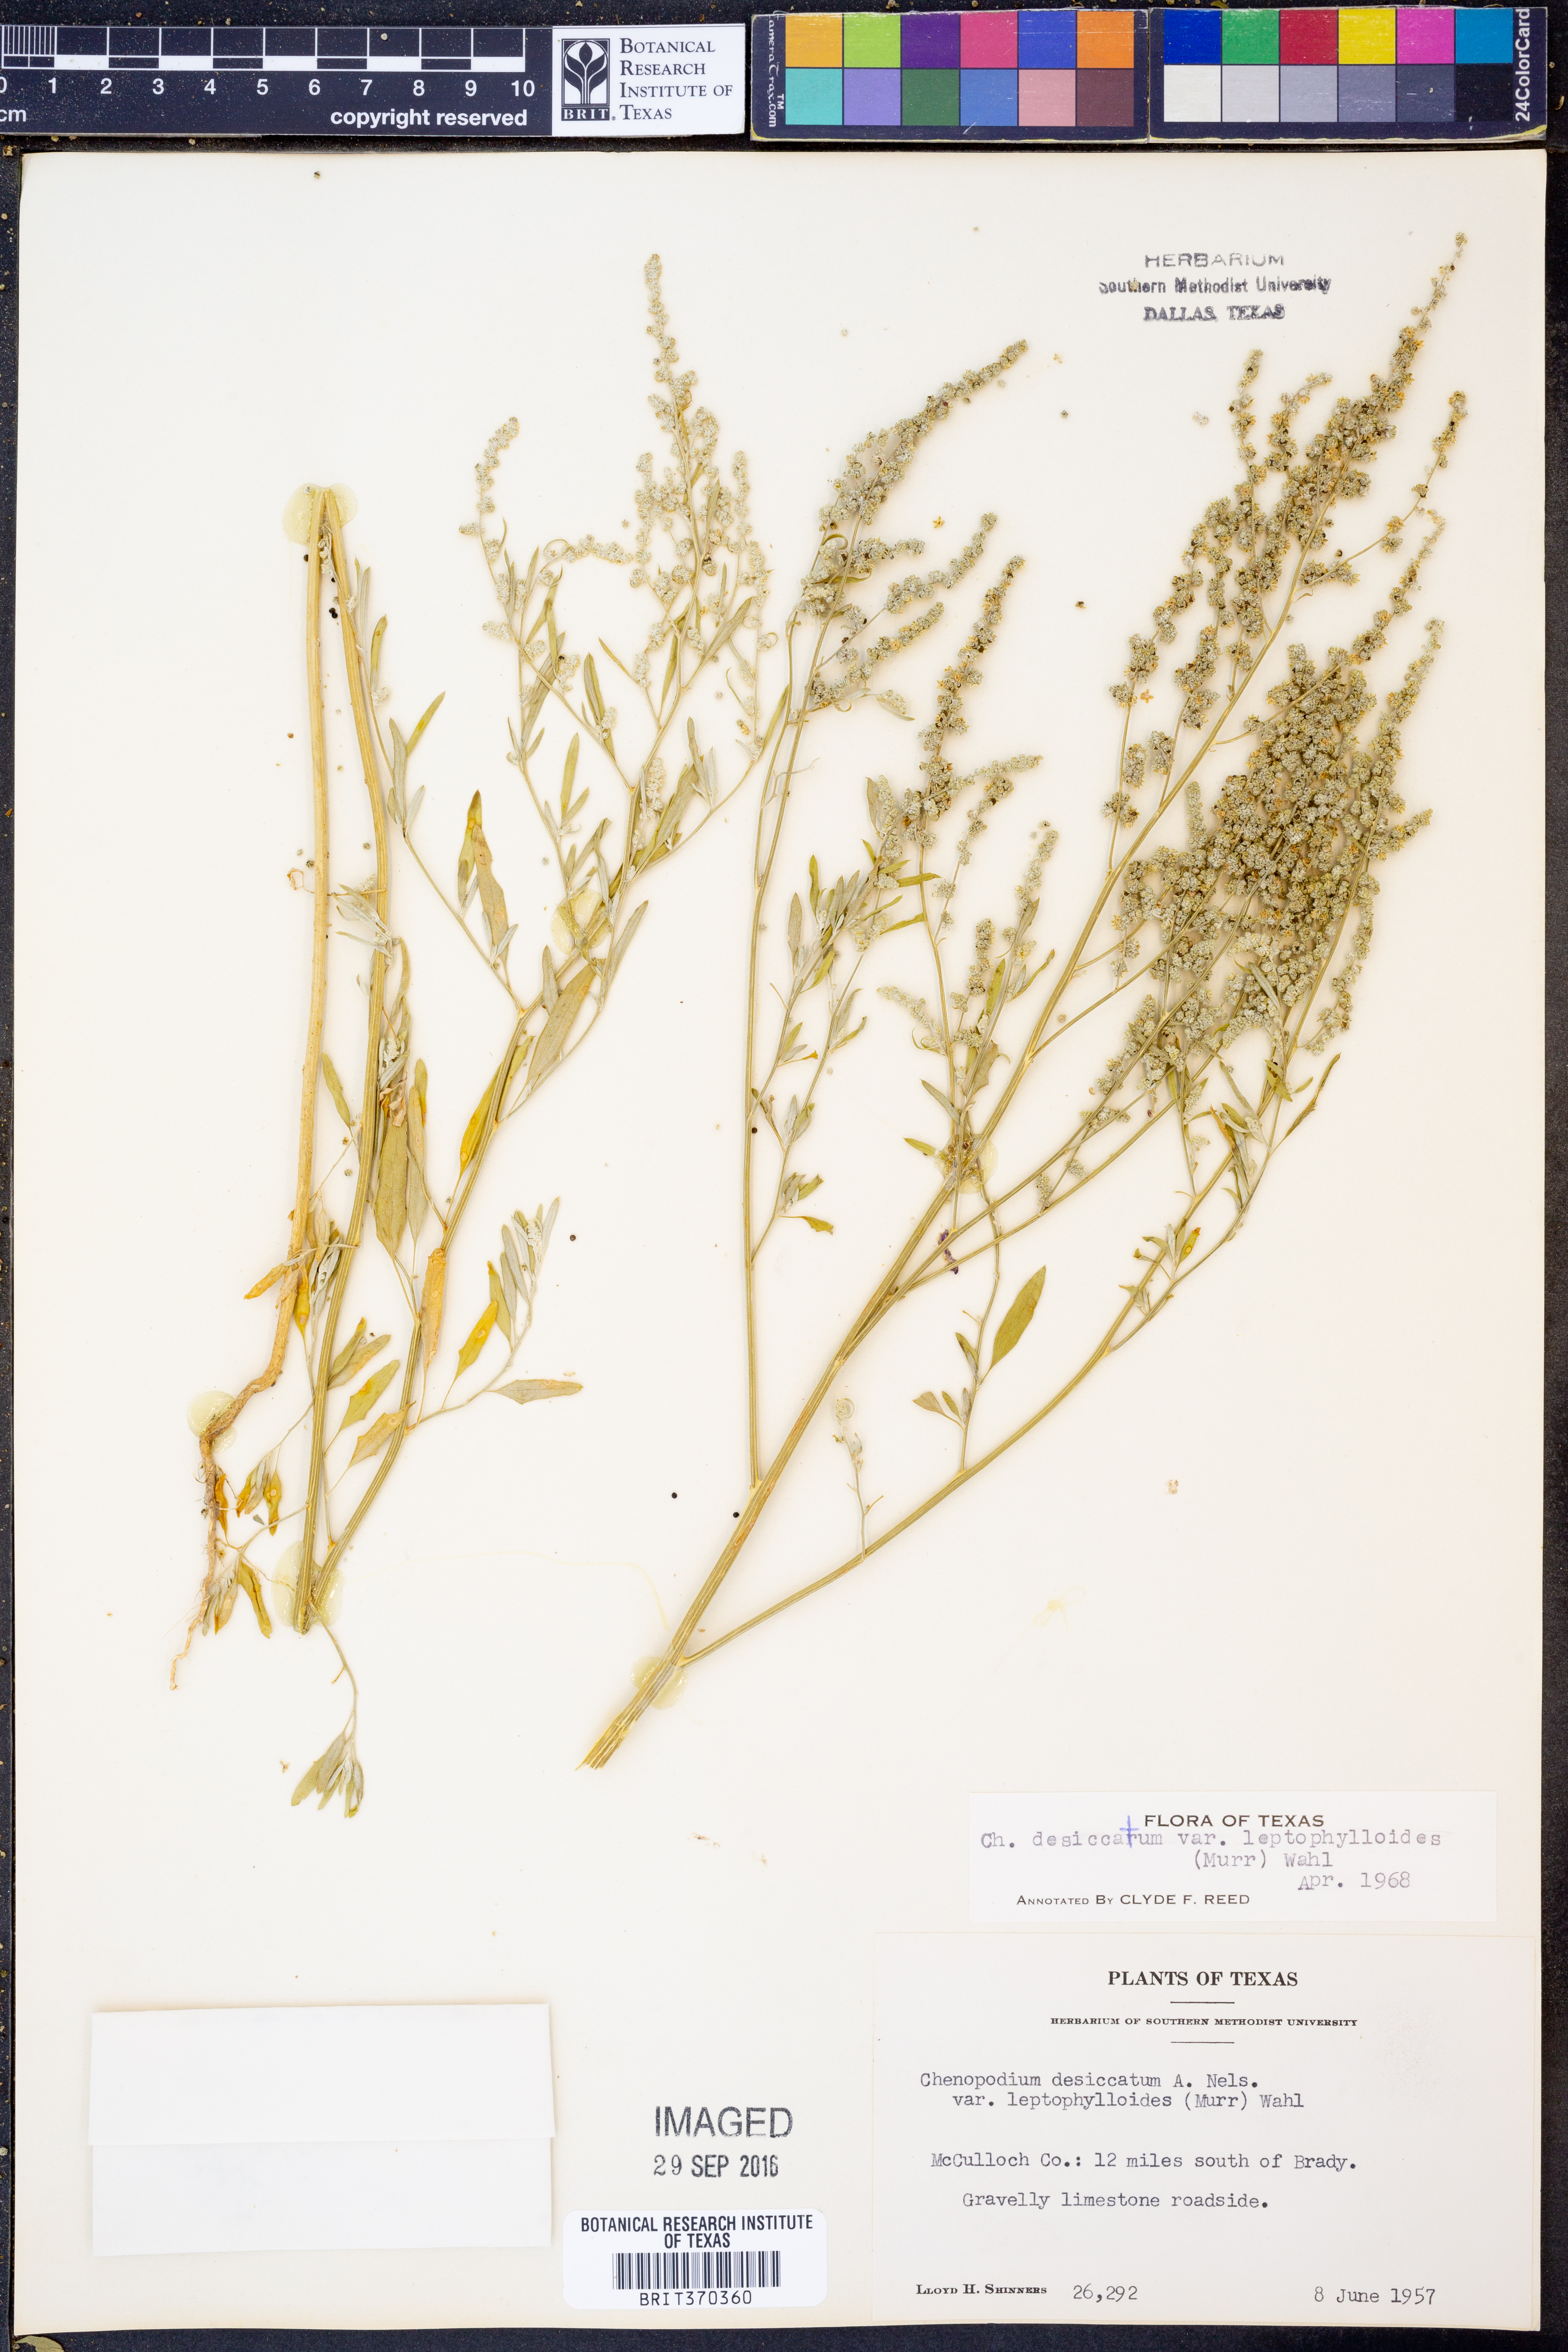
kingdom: Plantae
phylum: Tracheophyta
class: Magnoliopsida
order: Caryophyllales
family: Amaranthaceae
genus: Chenopodium
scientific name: Chenopodium pratericola
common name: Desert goosefoot
